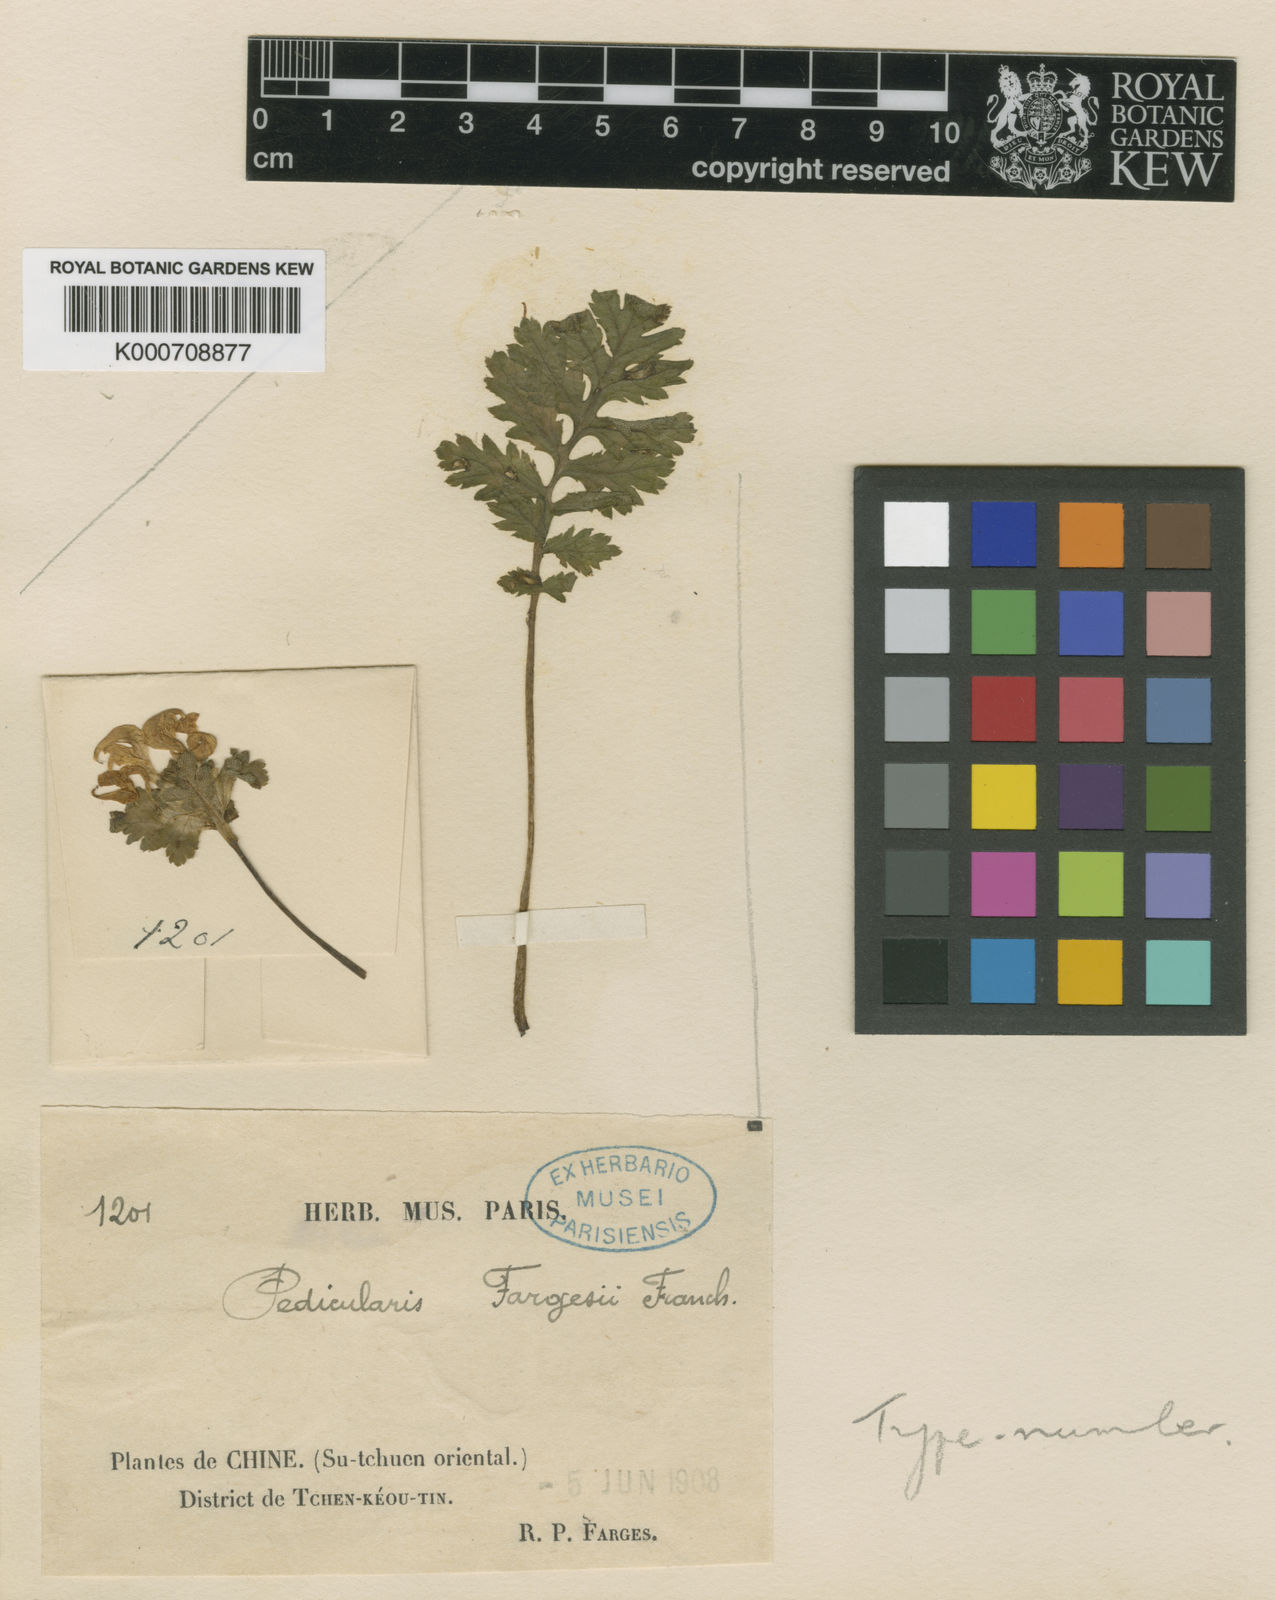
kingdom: Plantae
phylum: Tracheophyta
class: Magnoliopsida
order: Lamiales
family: Orobanchaceae
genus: Pedicularis
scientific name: Pedicularis fargesii
